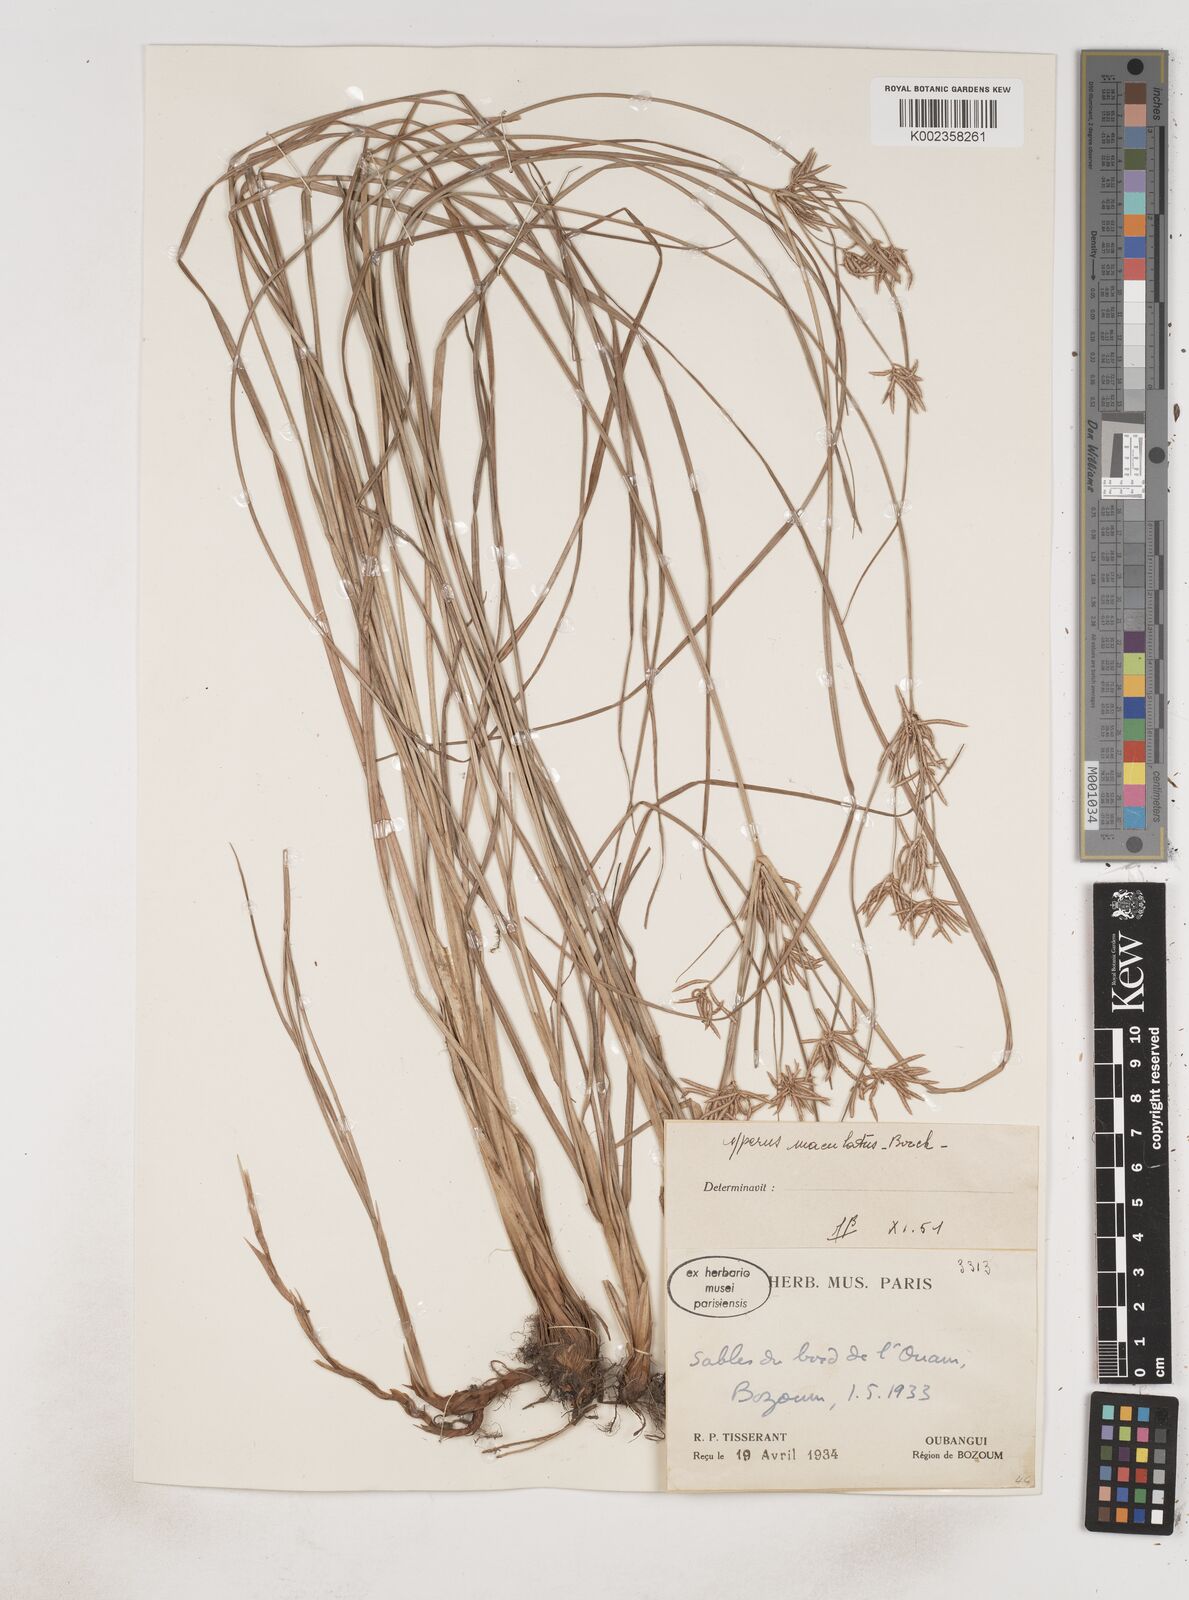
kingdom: Plantae
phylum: Tracheophyta
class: Liliopsida
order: Poales
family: Cyperaceae
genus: Cyperus
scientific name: Cyperus maculatus
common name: Maculated sedge
